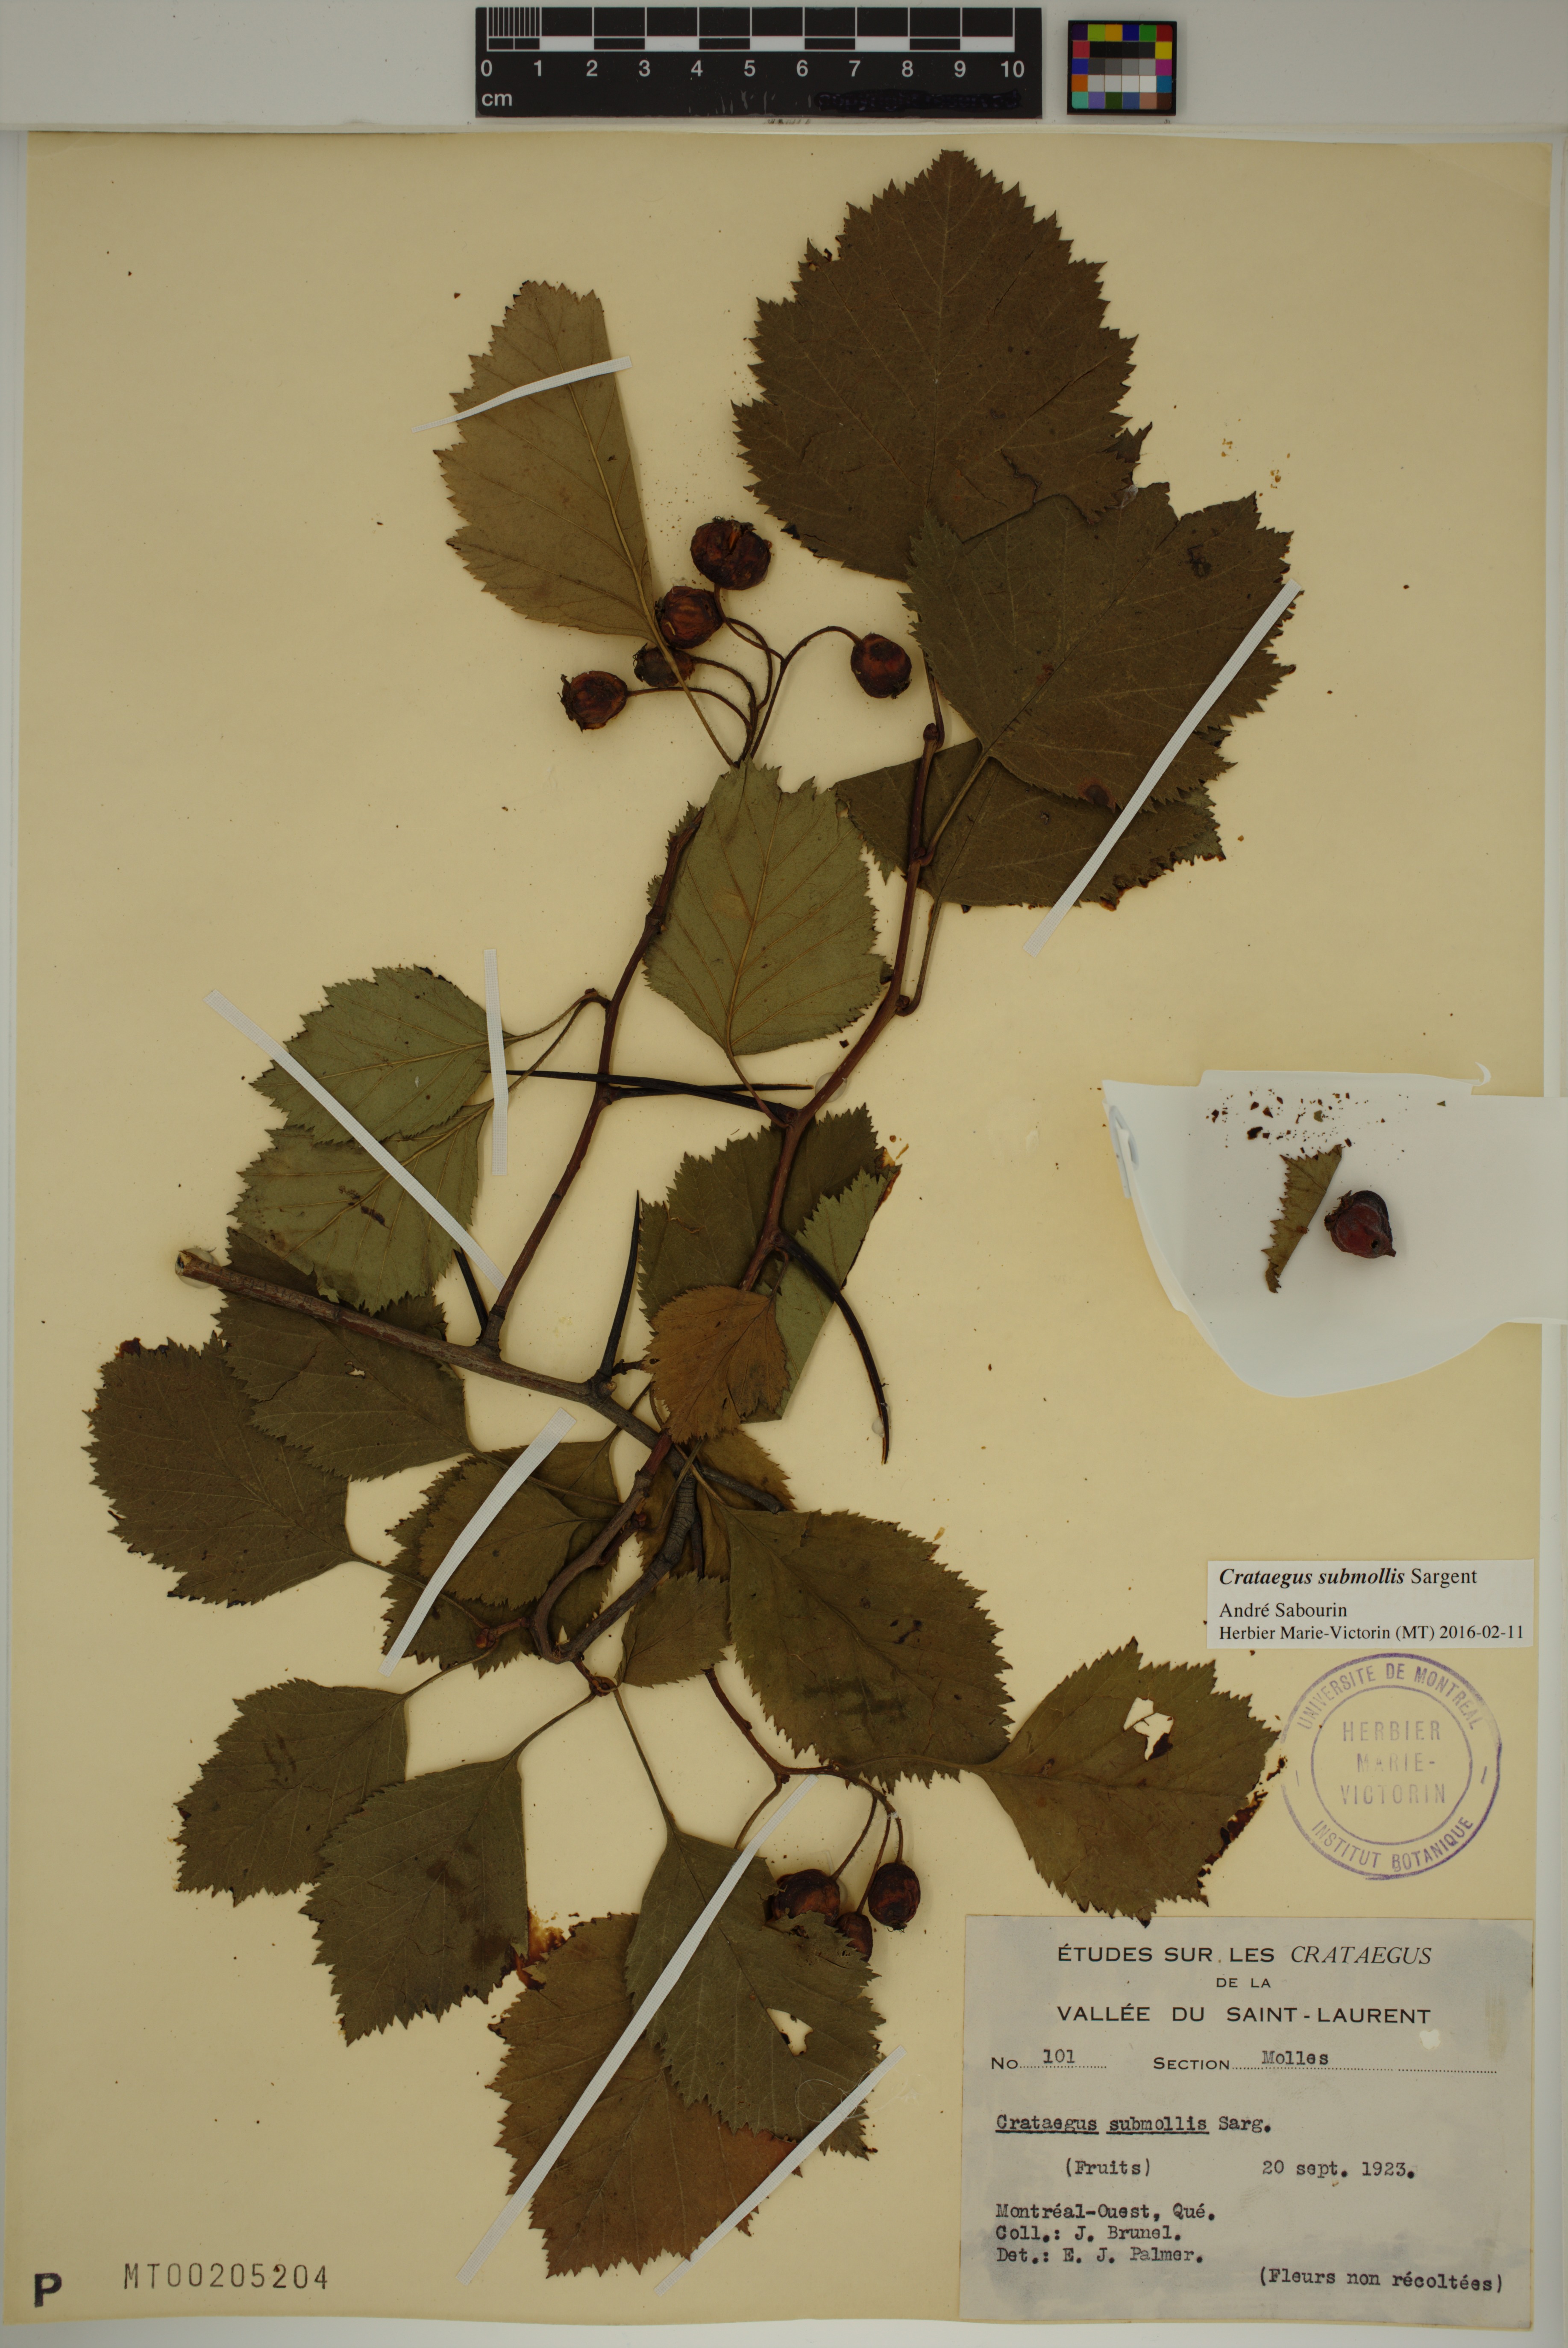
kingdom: Plantae
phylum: Tracheophyta
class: Magnoliopsida
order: Rosales
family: Rosaceae
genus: Crataegus
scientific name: Crataegus submollis
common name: Hairy cockspurthorn
